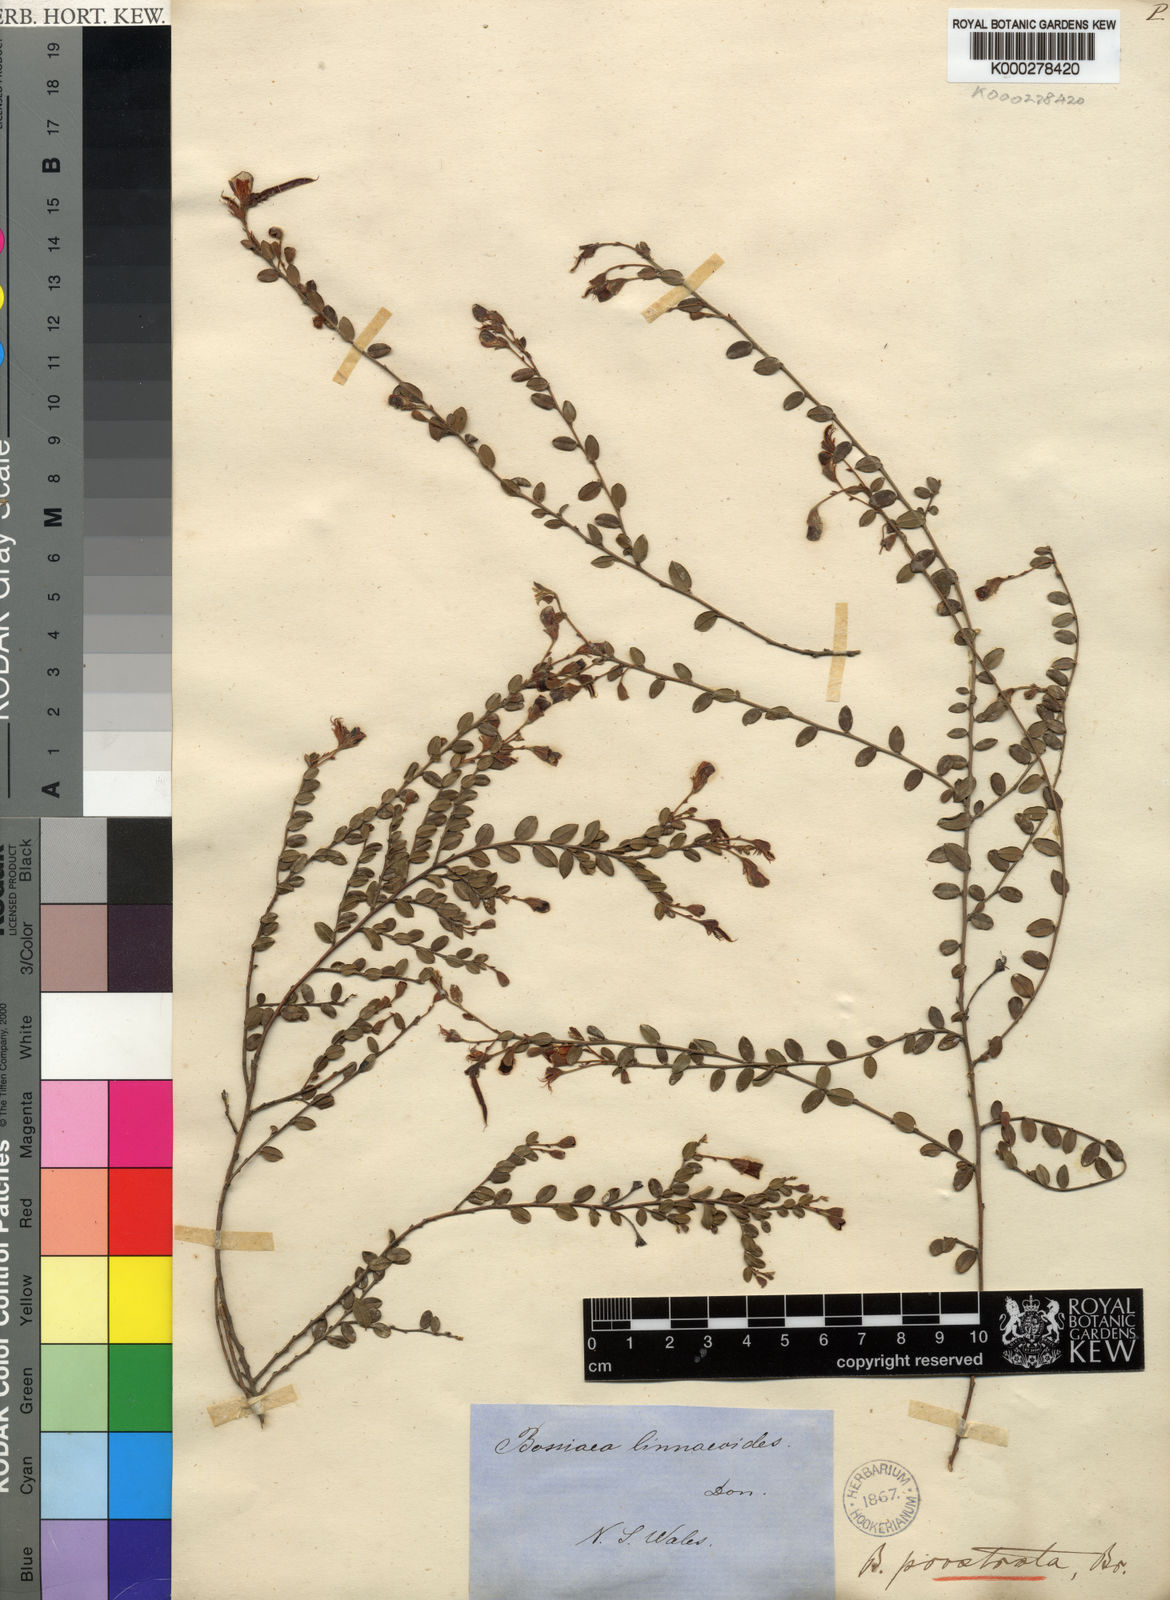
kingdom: Plantae
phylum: Tracheophyta
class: Magnoliopsida
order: Fabales
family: Fabaceae
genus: Bossiaea
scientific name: Bossiaea prostrata
